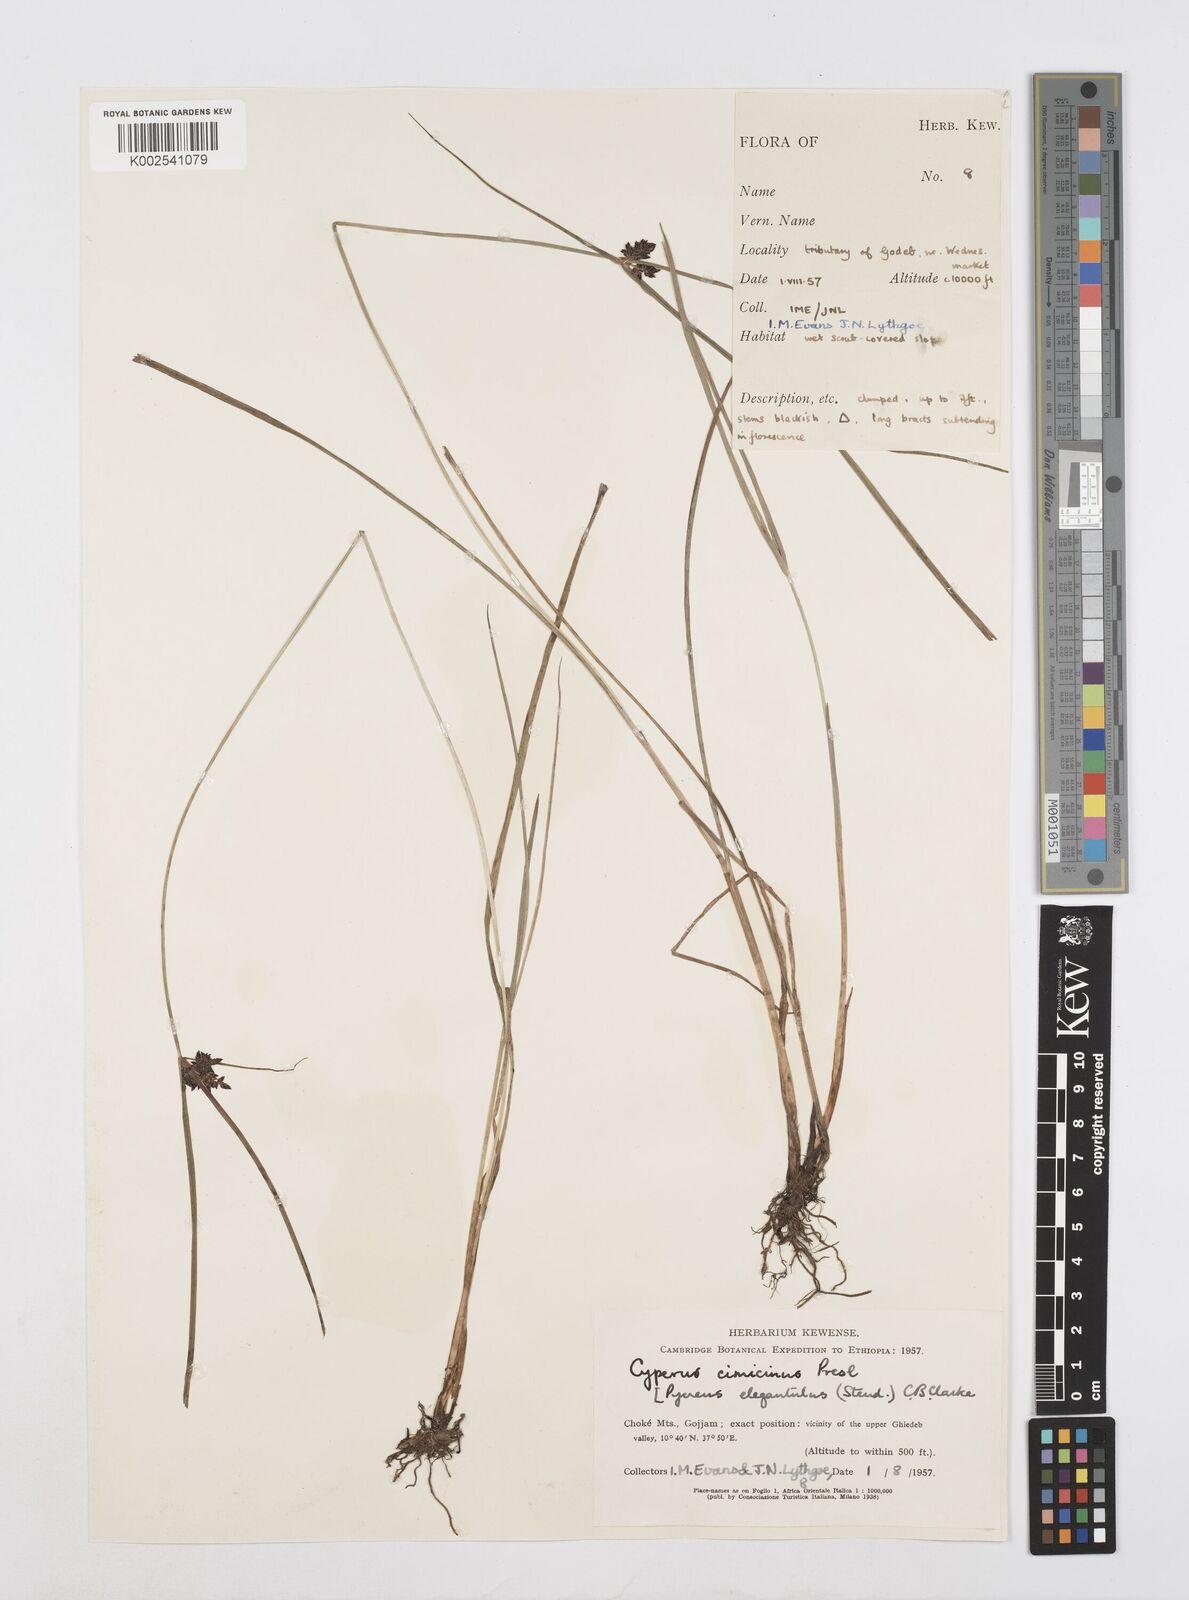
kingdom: Plantae
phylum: Tracheophyta
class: Liliopsida
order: Poales
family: Cyperaceae
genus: Cyperus
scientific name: Cyperus elegantulus
